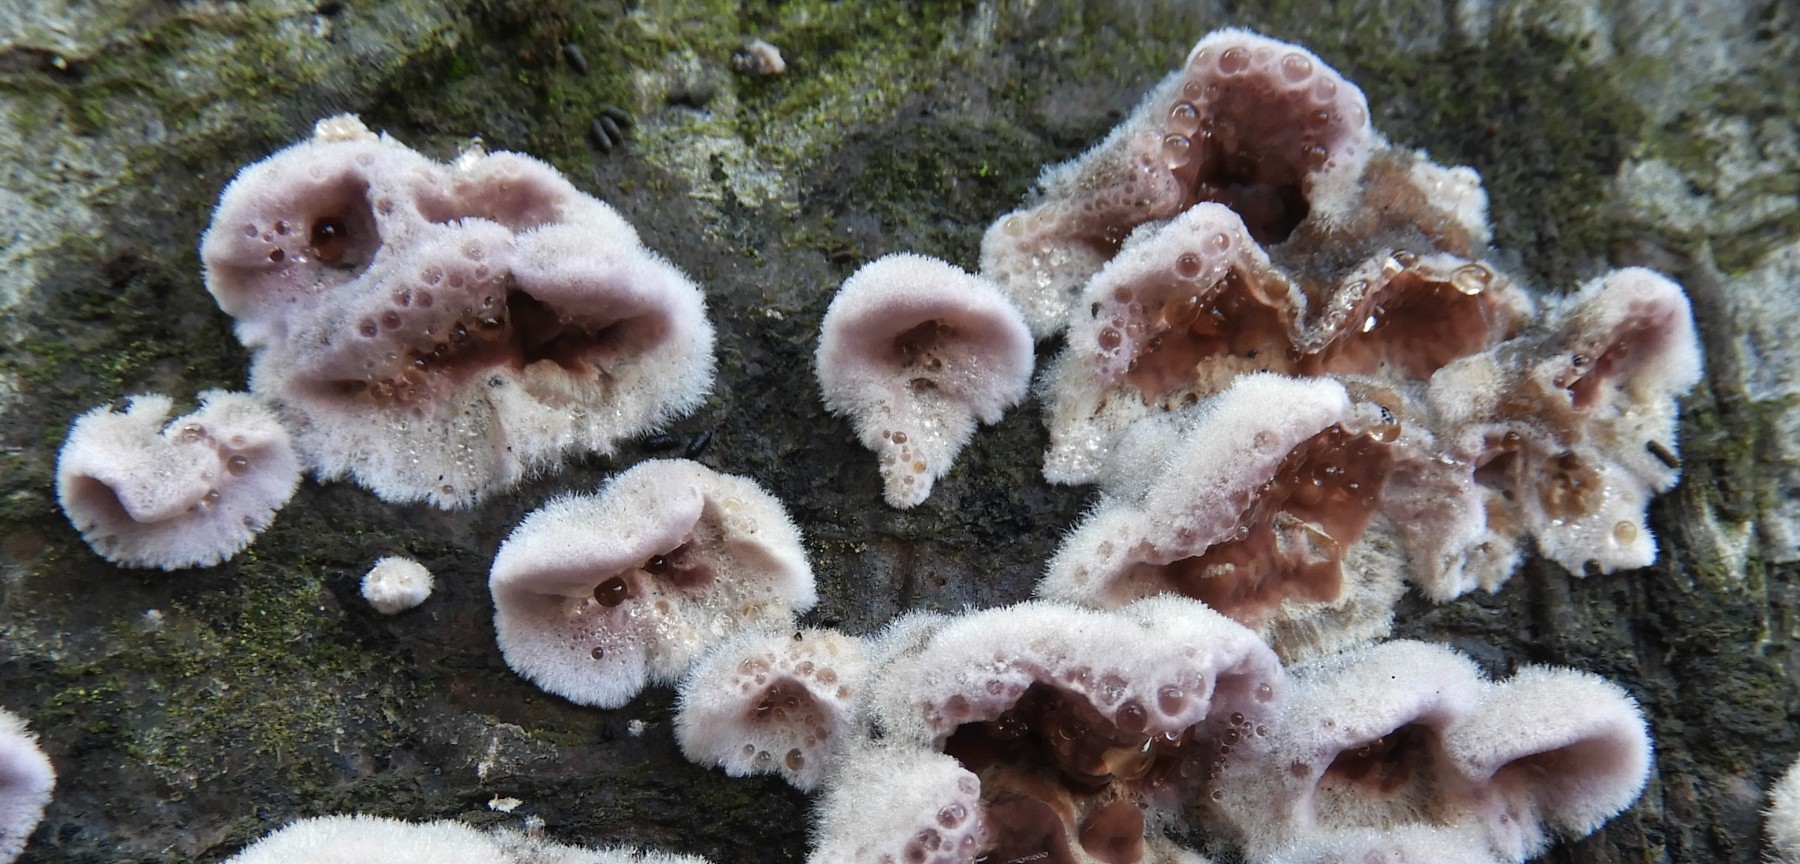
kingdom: Fungi
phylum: Basidiomycota
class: Agaricomycetes
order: Agaricales
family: Cyphellaceae
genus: Chondrostereum
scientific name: Chondrostereum purpureum
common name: purpurlædersvamp
